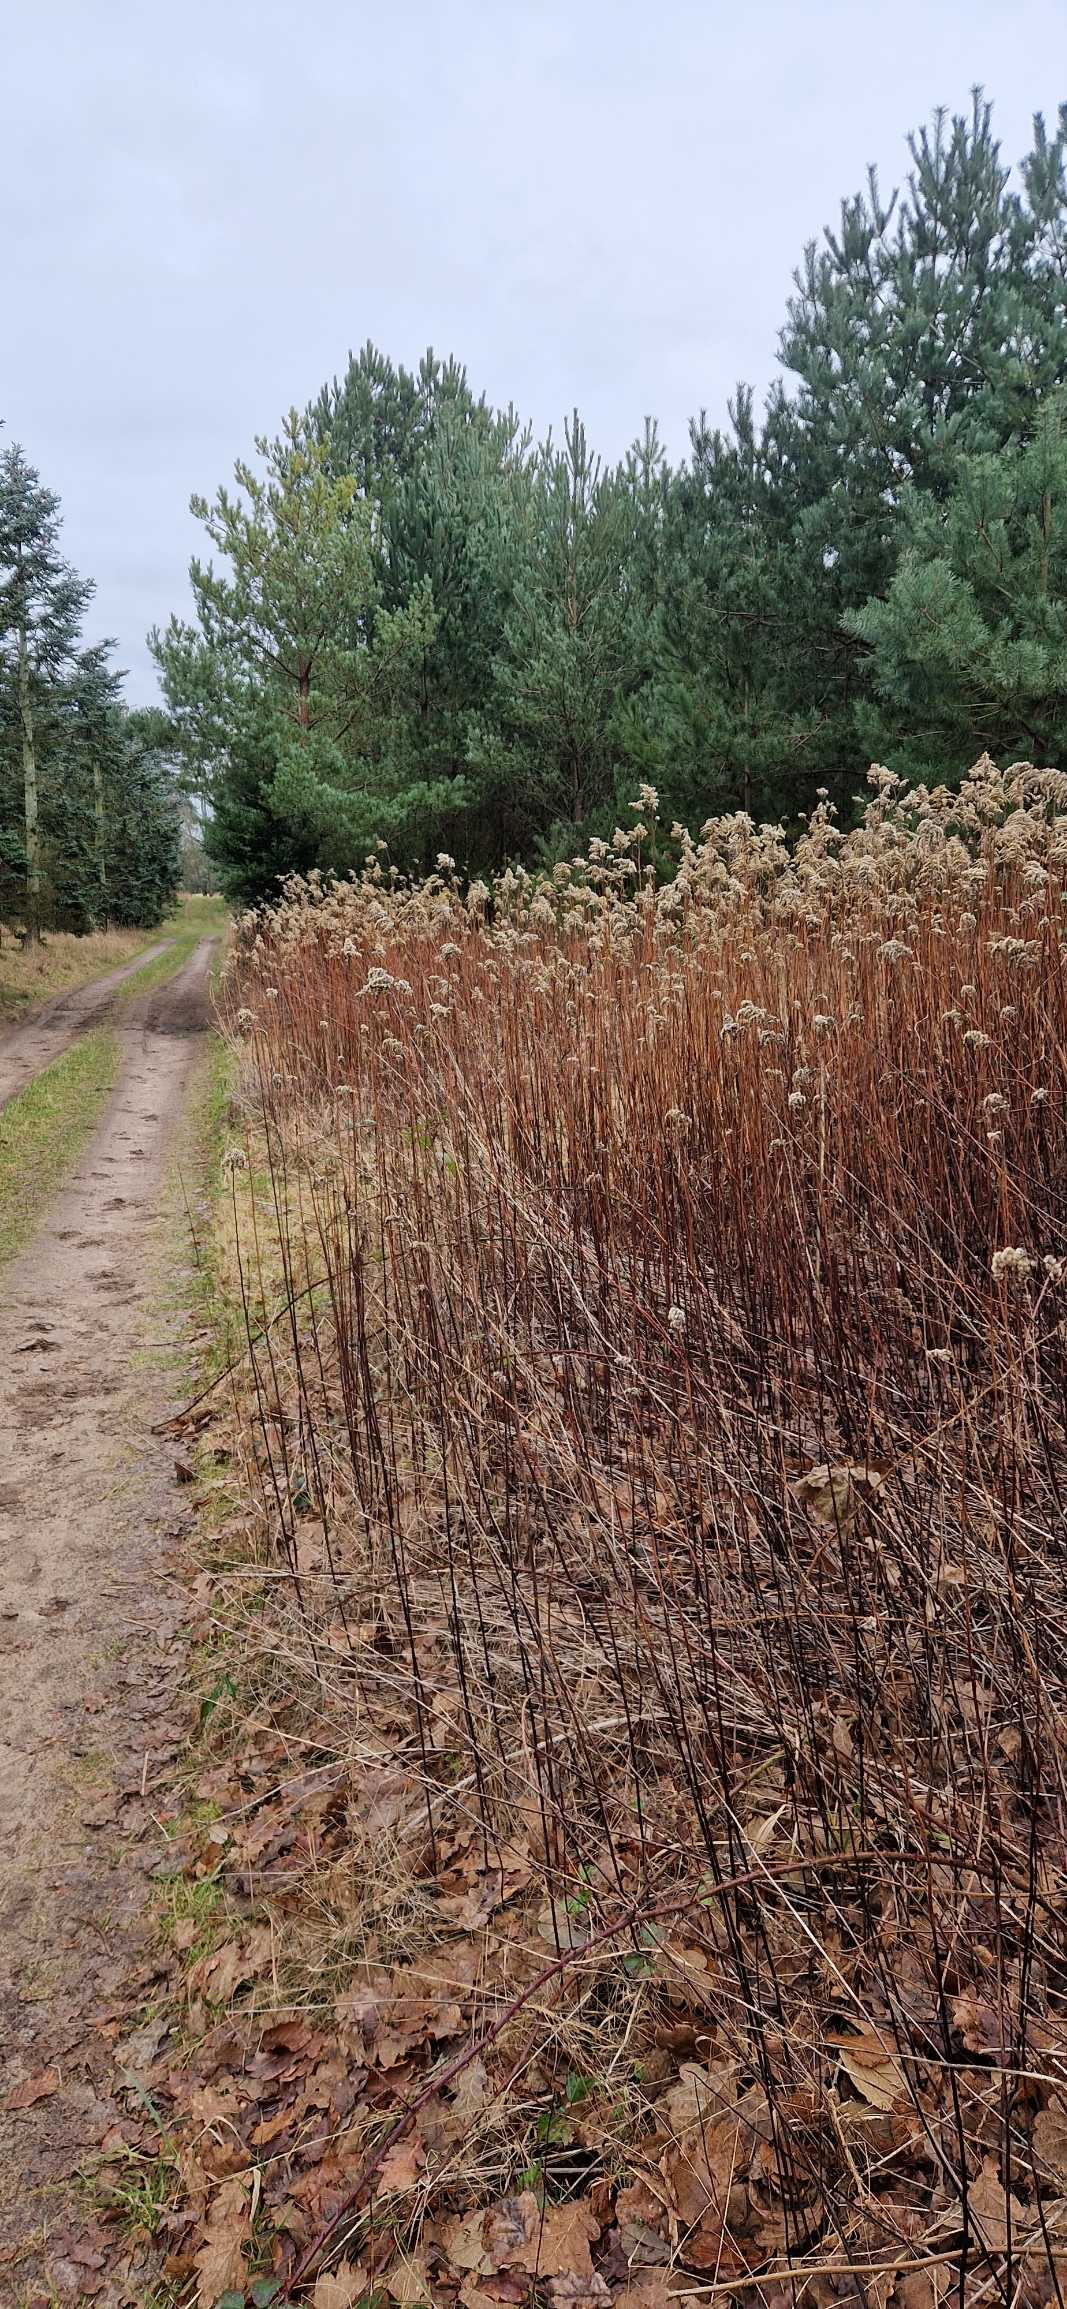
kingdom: Plantae
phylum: Tracheophyta
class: Magnoliopsida
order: Asterales
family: Asteraceae
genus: Solidago
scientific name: Solidago canadensis
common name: Kanadisk gyldenris
